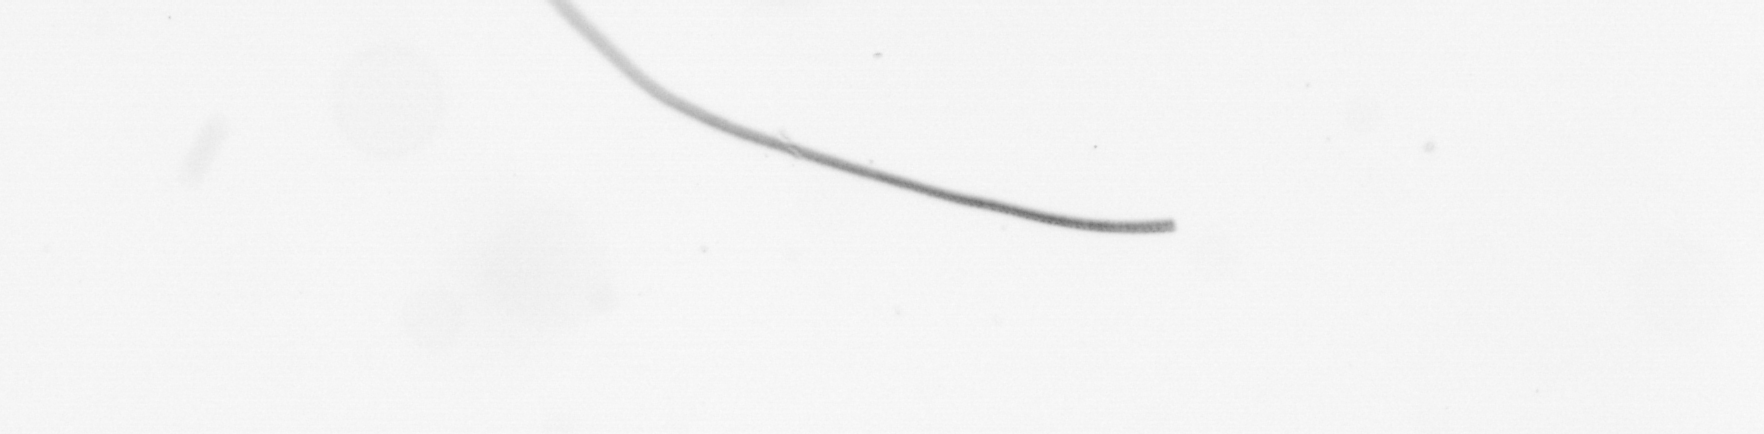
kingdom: Chromista
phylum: Ochrophyta
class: Bacillariophyceae
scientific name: Bacillariophyceae
